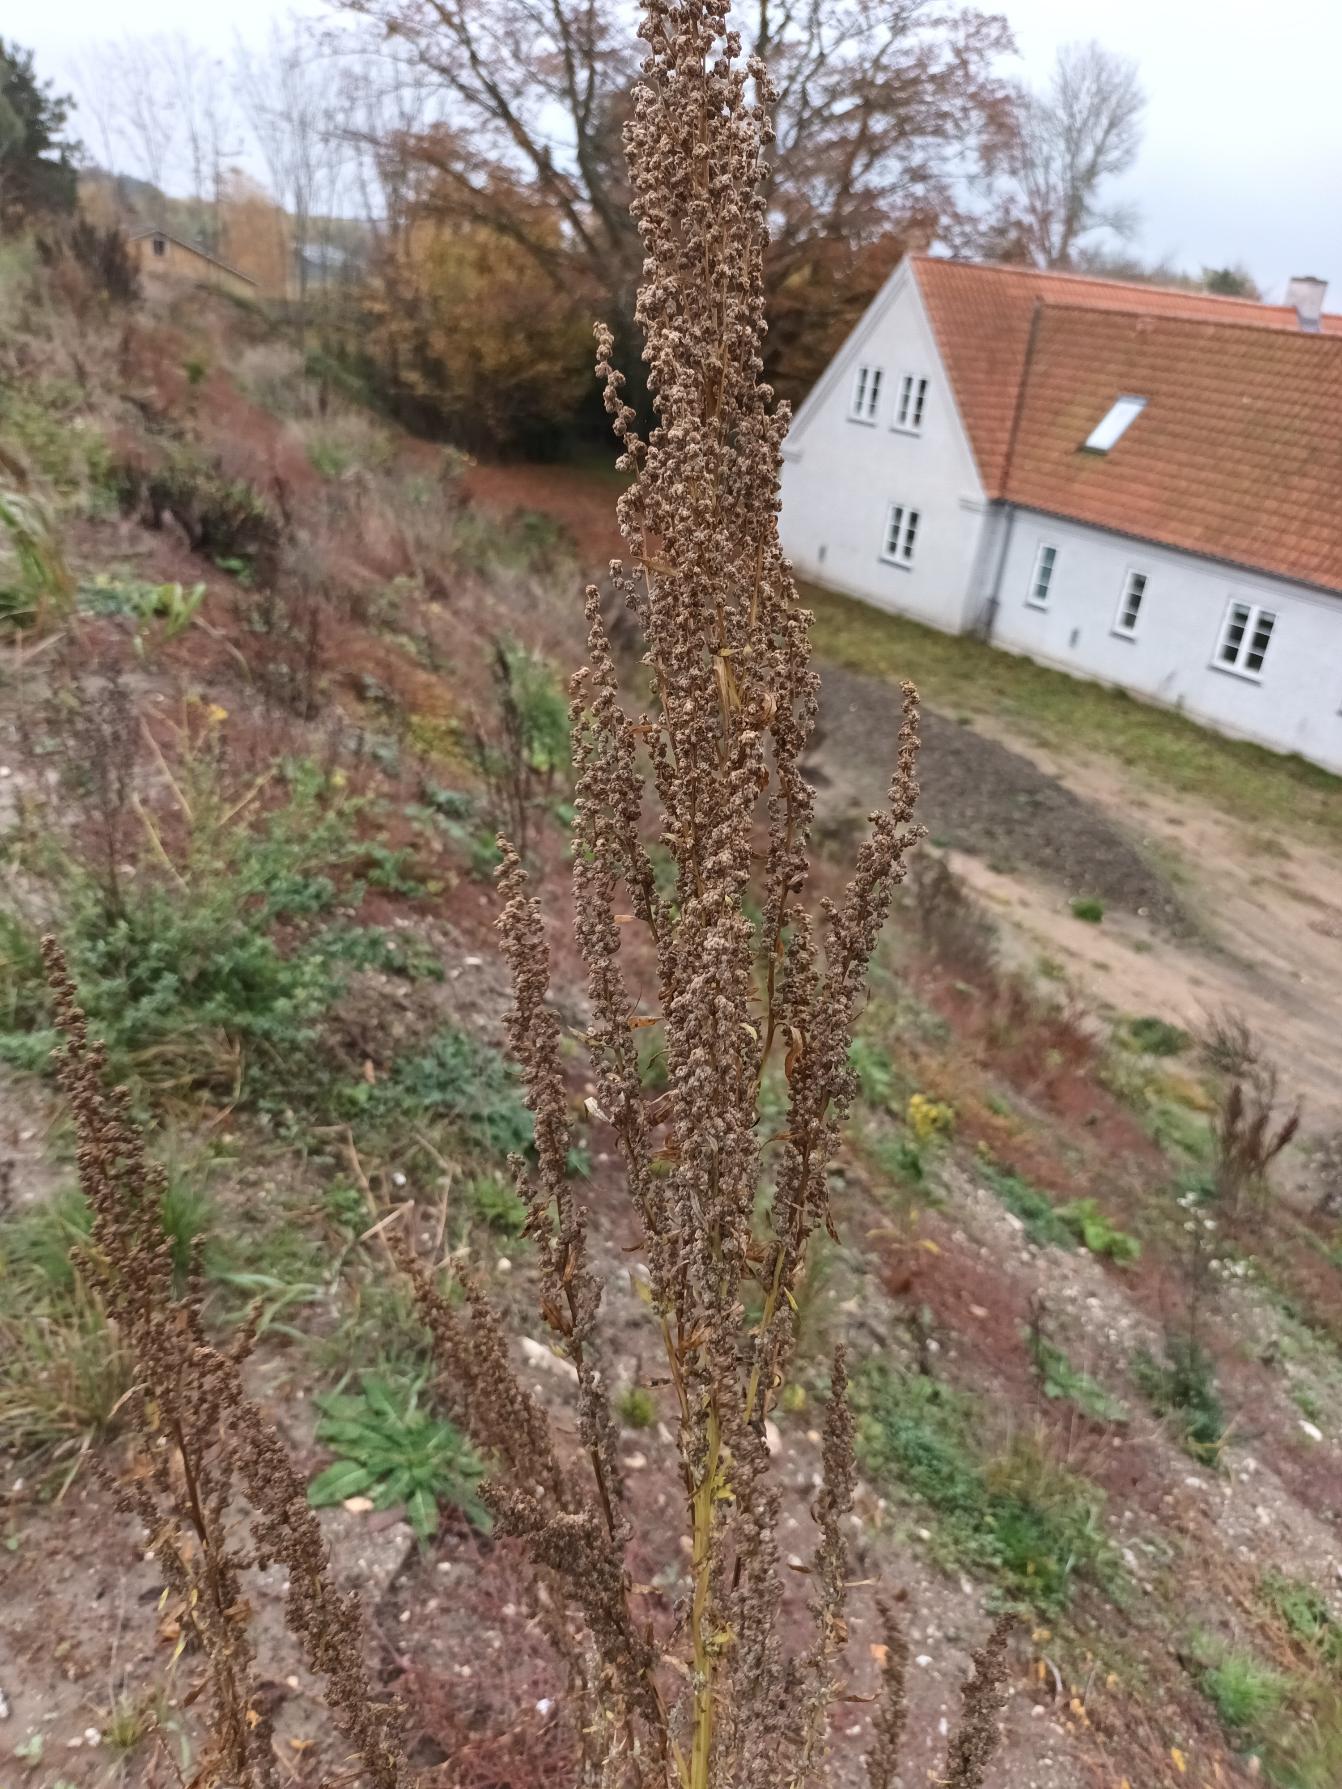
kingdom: Plantae
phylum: Tracheophyta
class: Magnoliopsida
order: Caryophyllales
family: Amaranthaceae
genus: Chenopodium
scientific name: Chenopodium album
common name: Hvidmelet gåsefod
